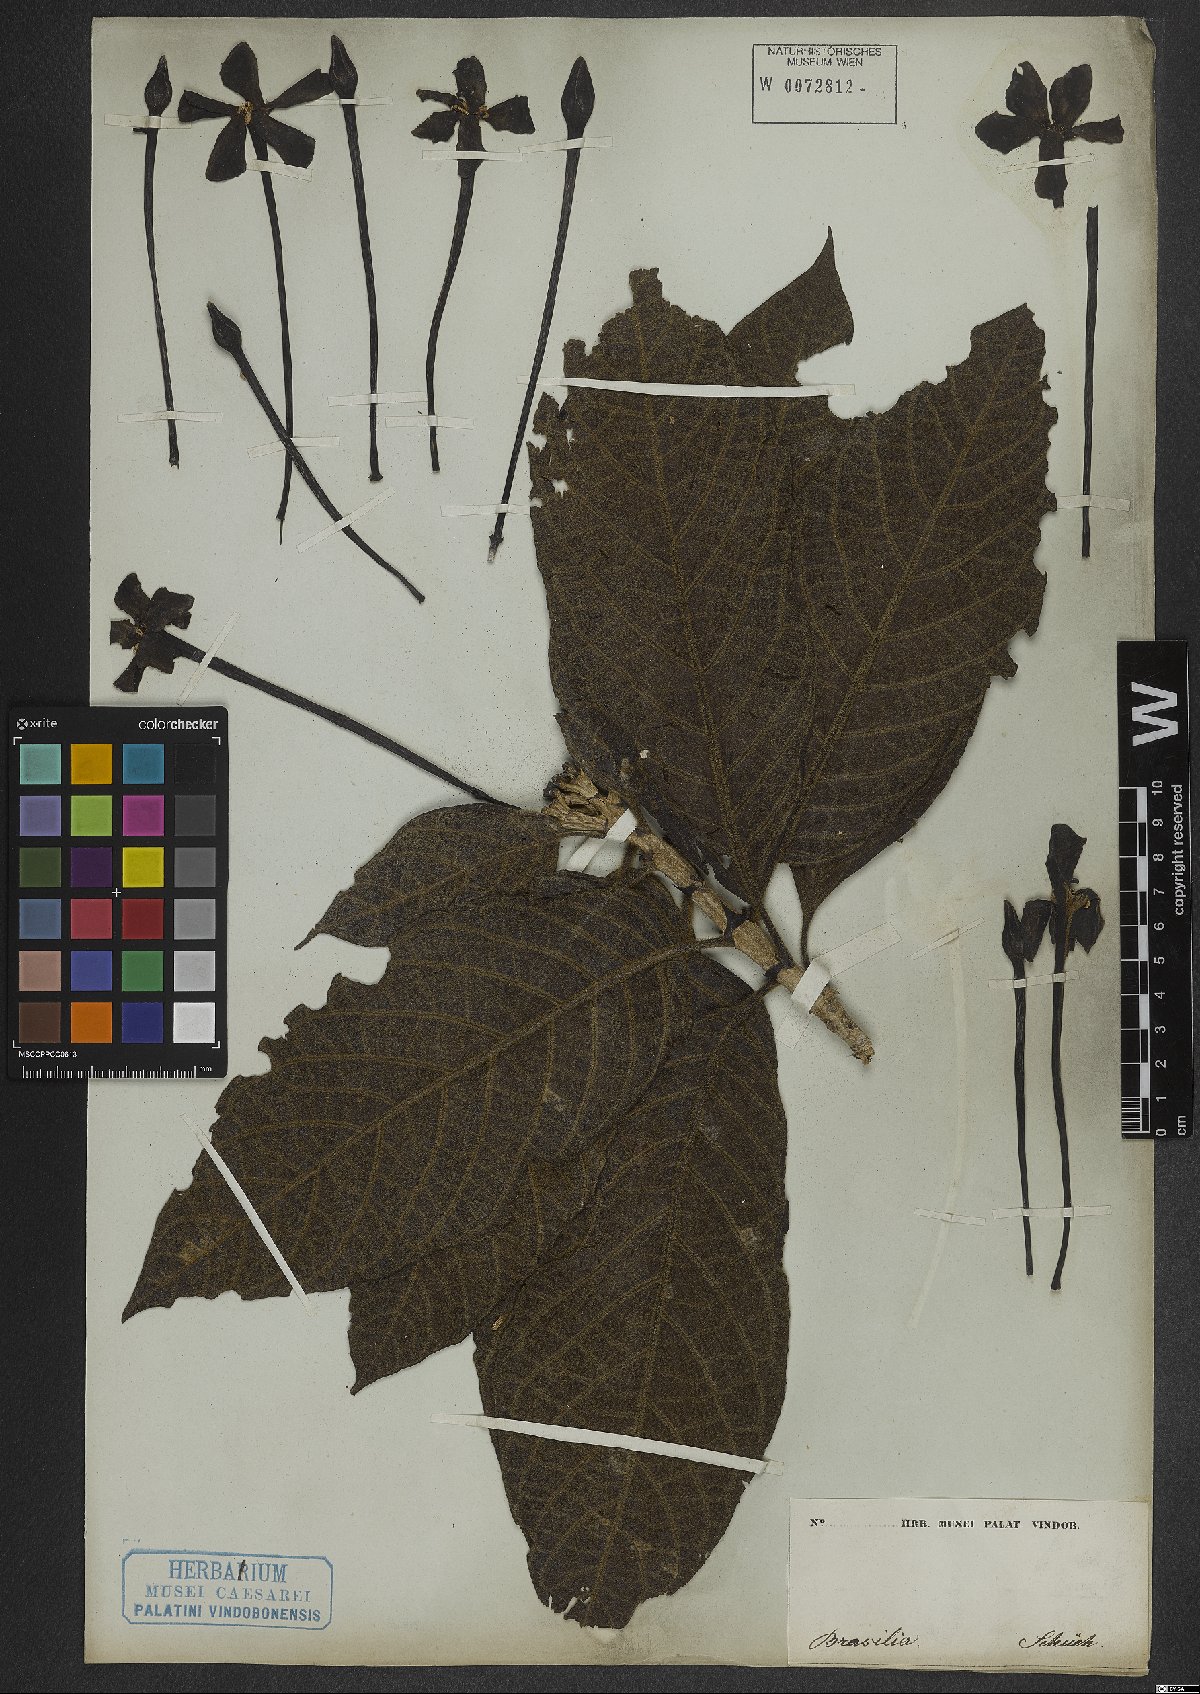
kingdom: Plantae
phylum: Tracheophyta
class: Magnoliopsida
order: Gentianales
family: Rubiaceae
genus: Tocoyena
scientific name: Tocoyena bullata
